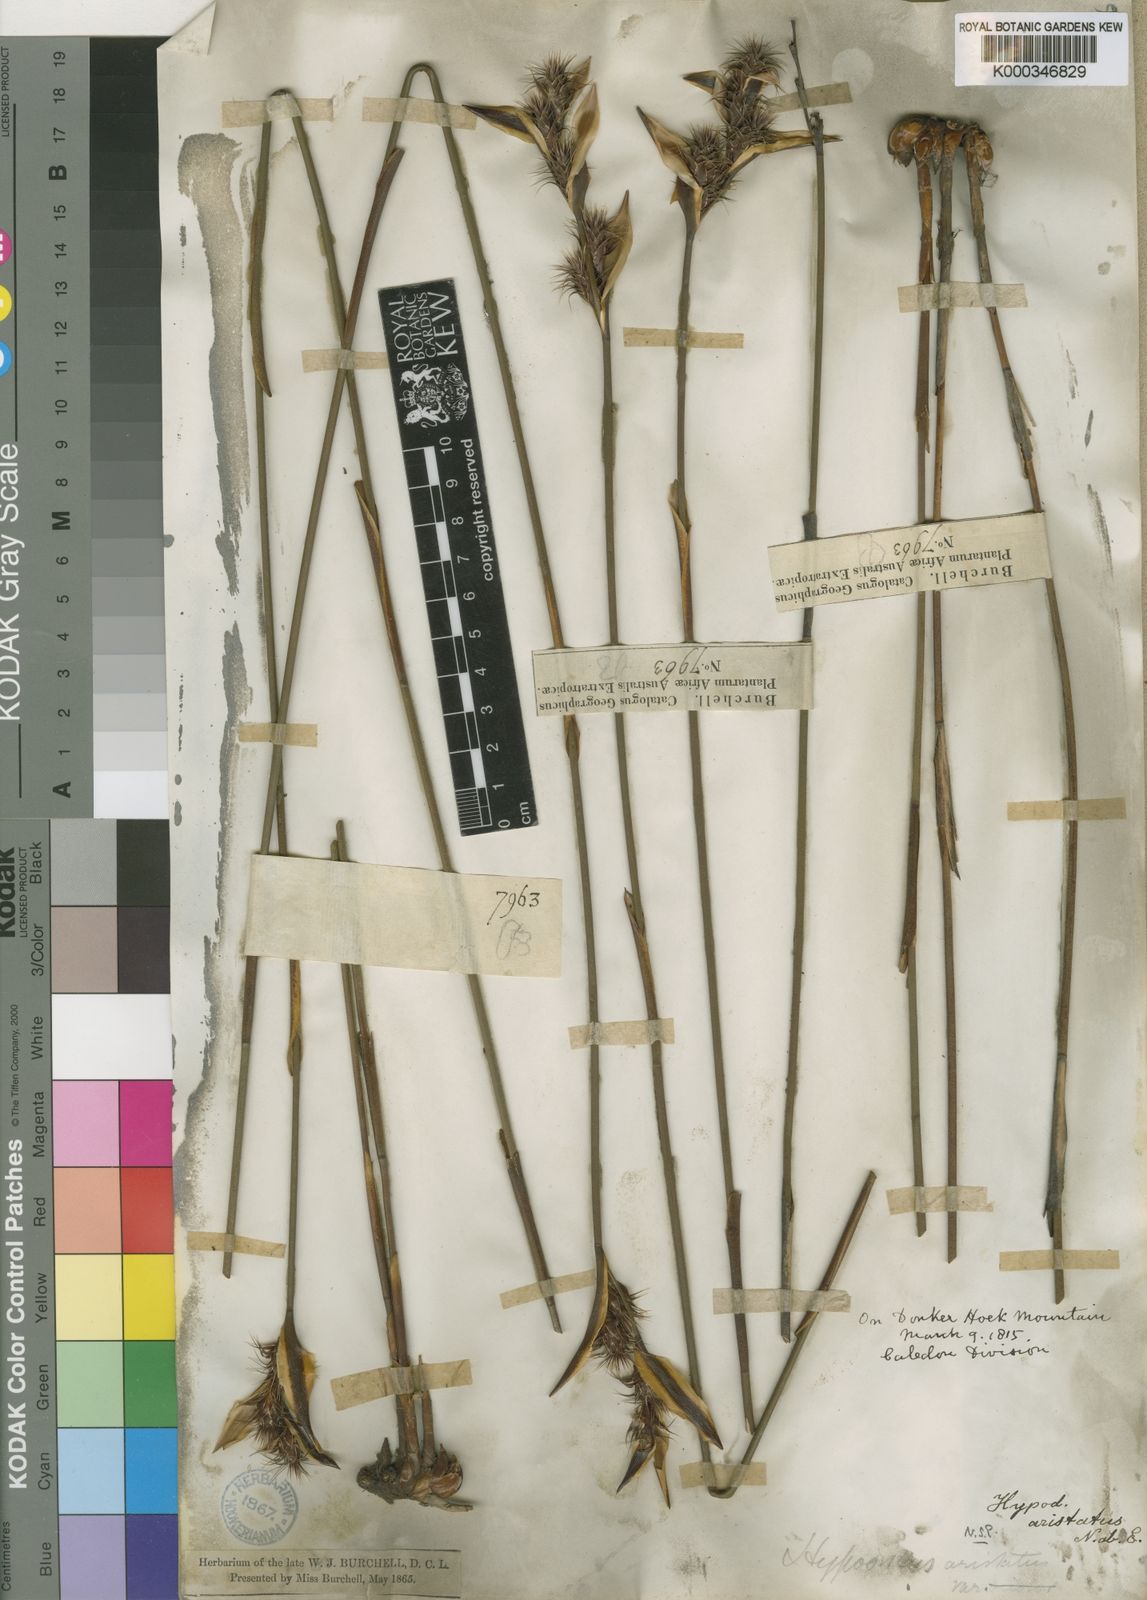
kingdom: Plantae
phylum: Tracheophyta
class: Liliopsida
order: Poales
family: Restionaceae
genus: Hypodiscus
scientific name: Hypodiscus aristatus
